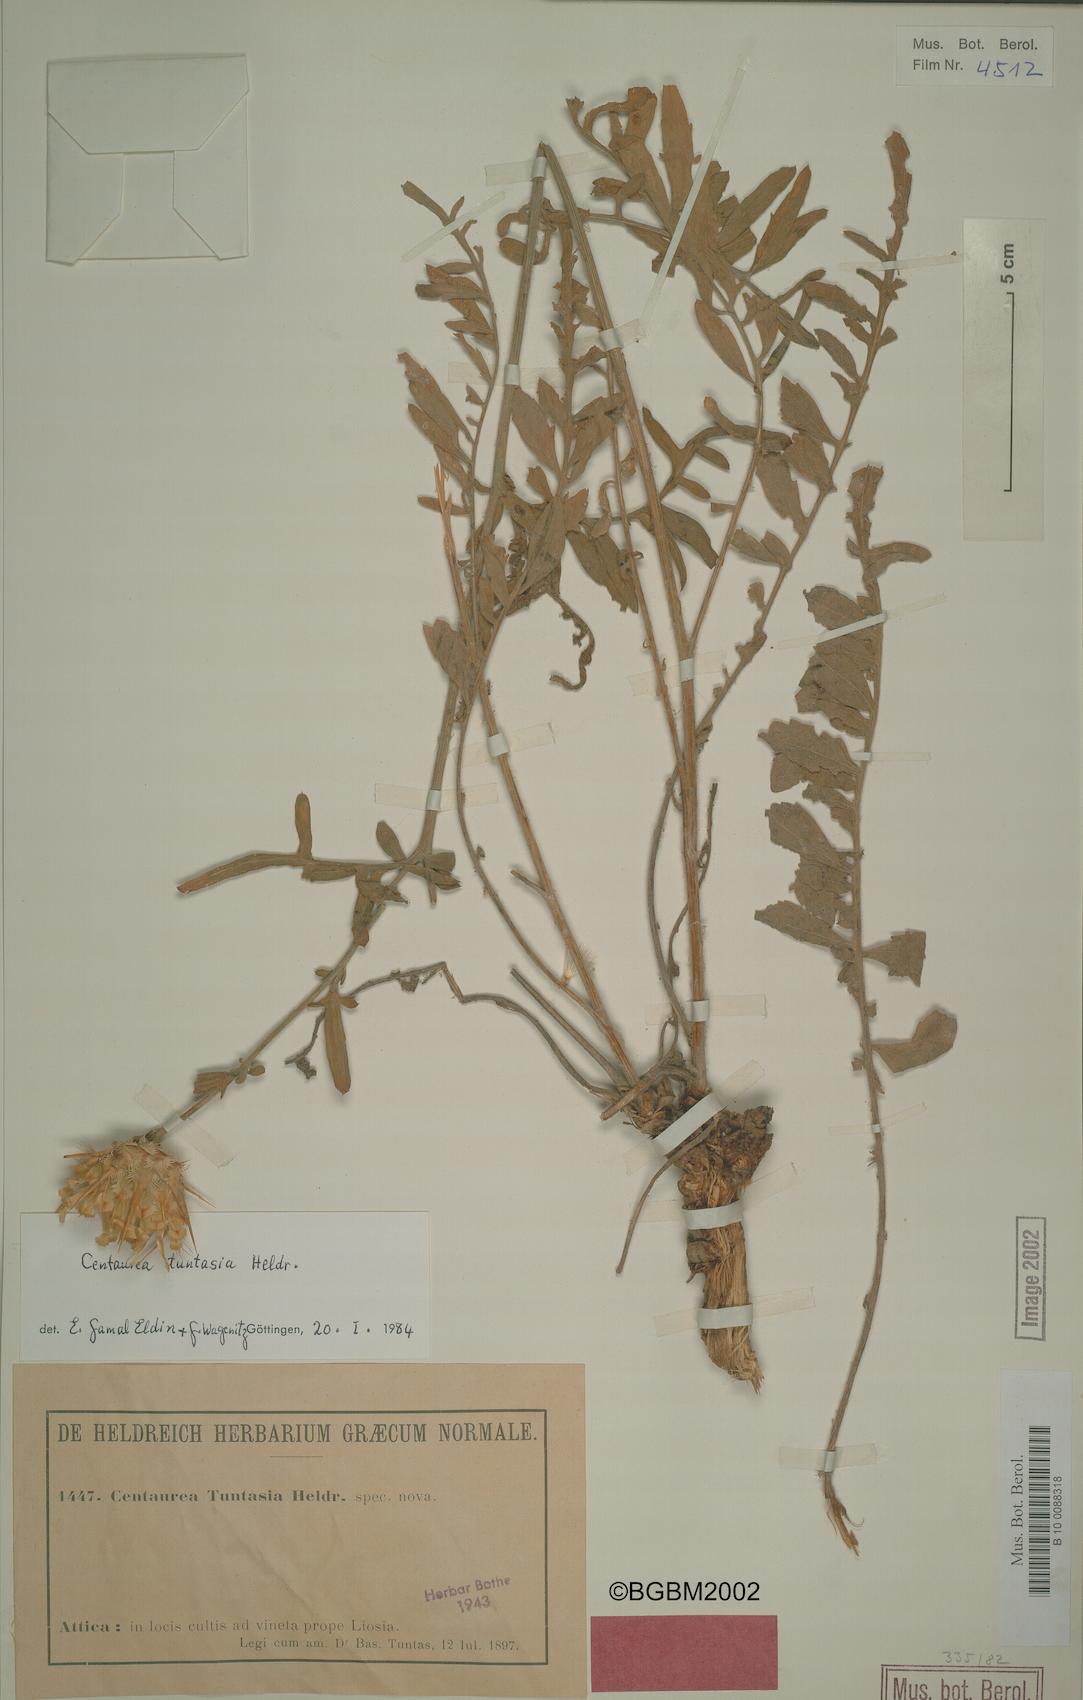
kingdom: Plantae
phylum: Tracheophyta
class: Magnoliopsida
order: Asterales
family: Asteraceae
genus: Centaurea
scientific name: Centaurea tuntasia
